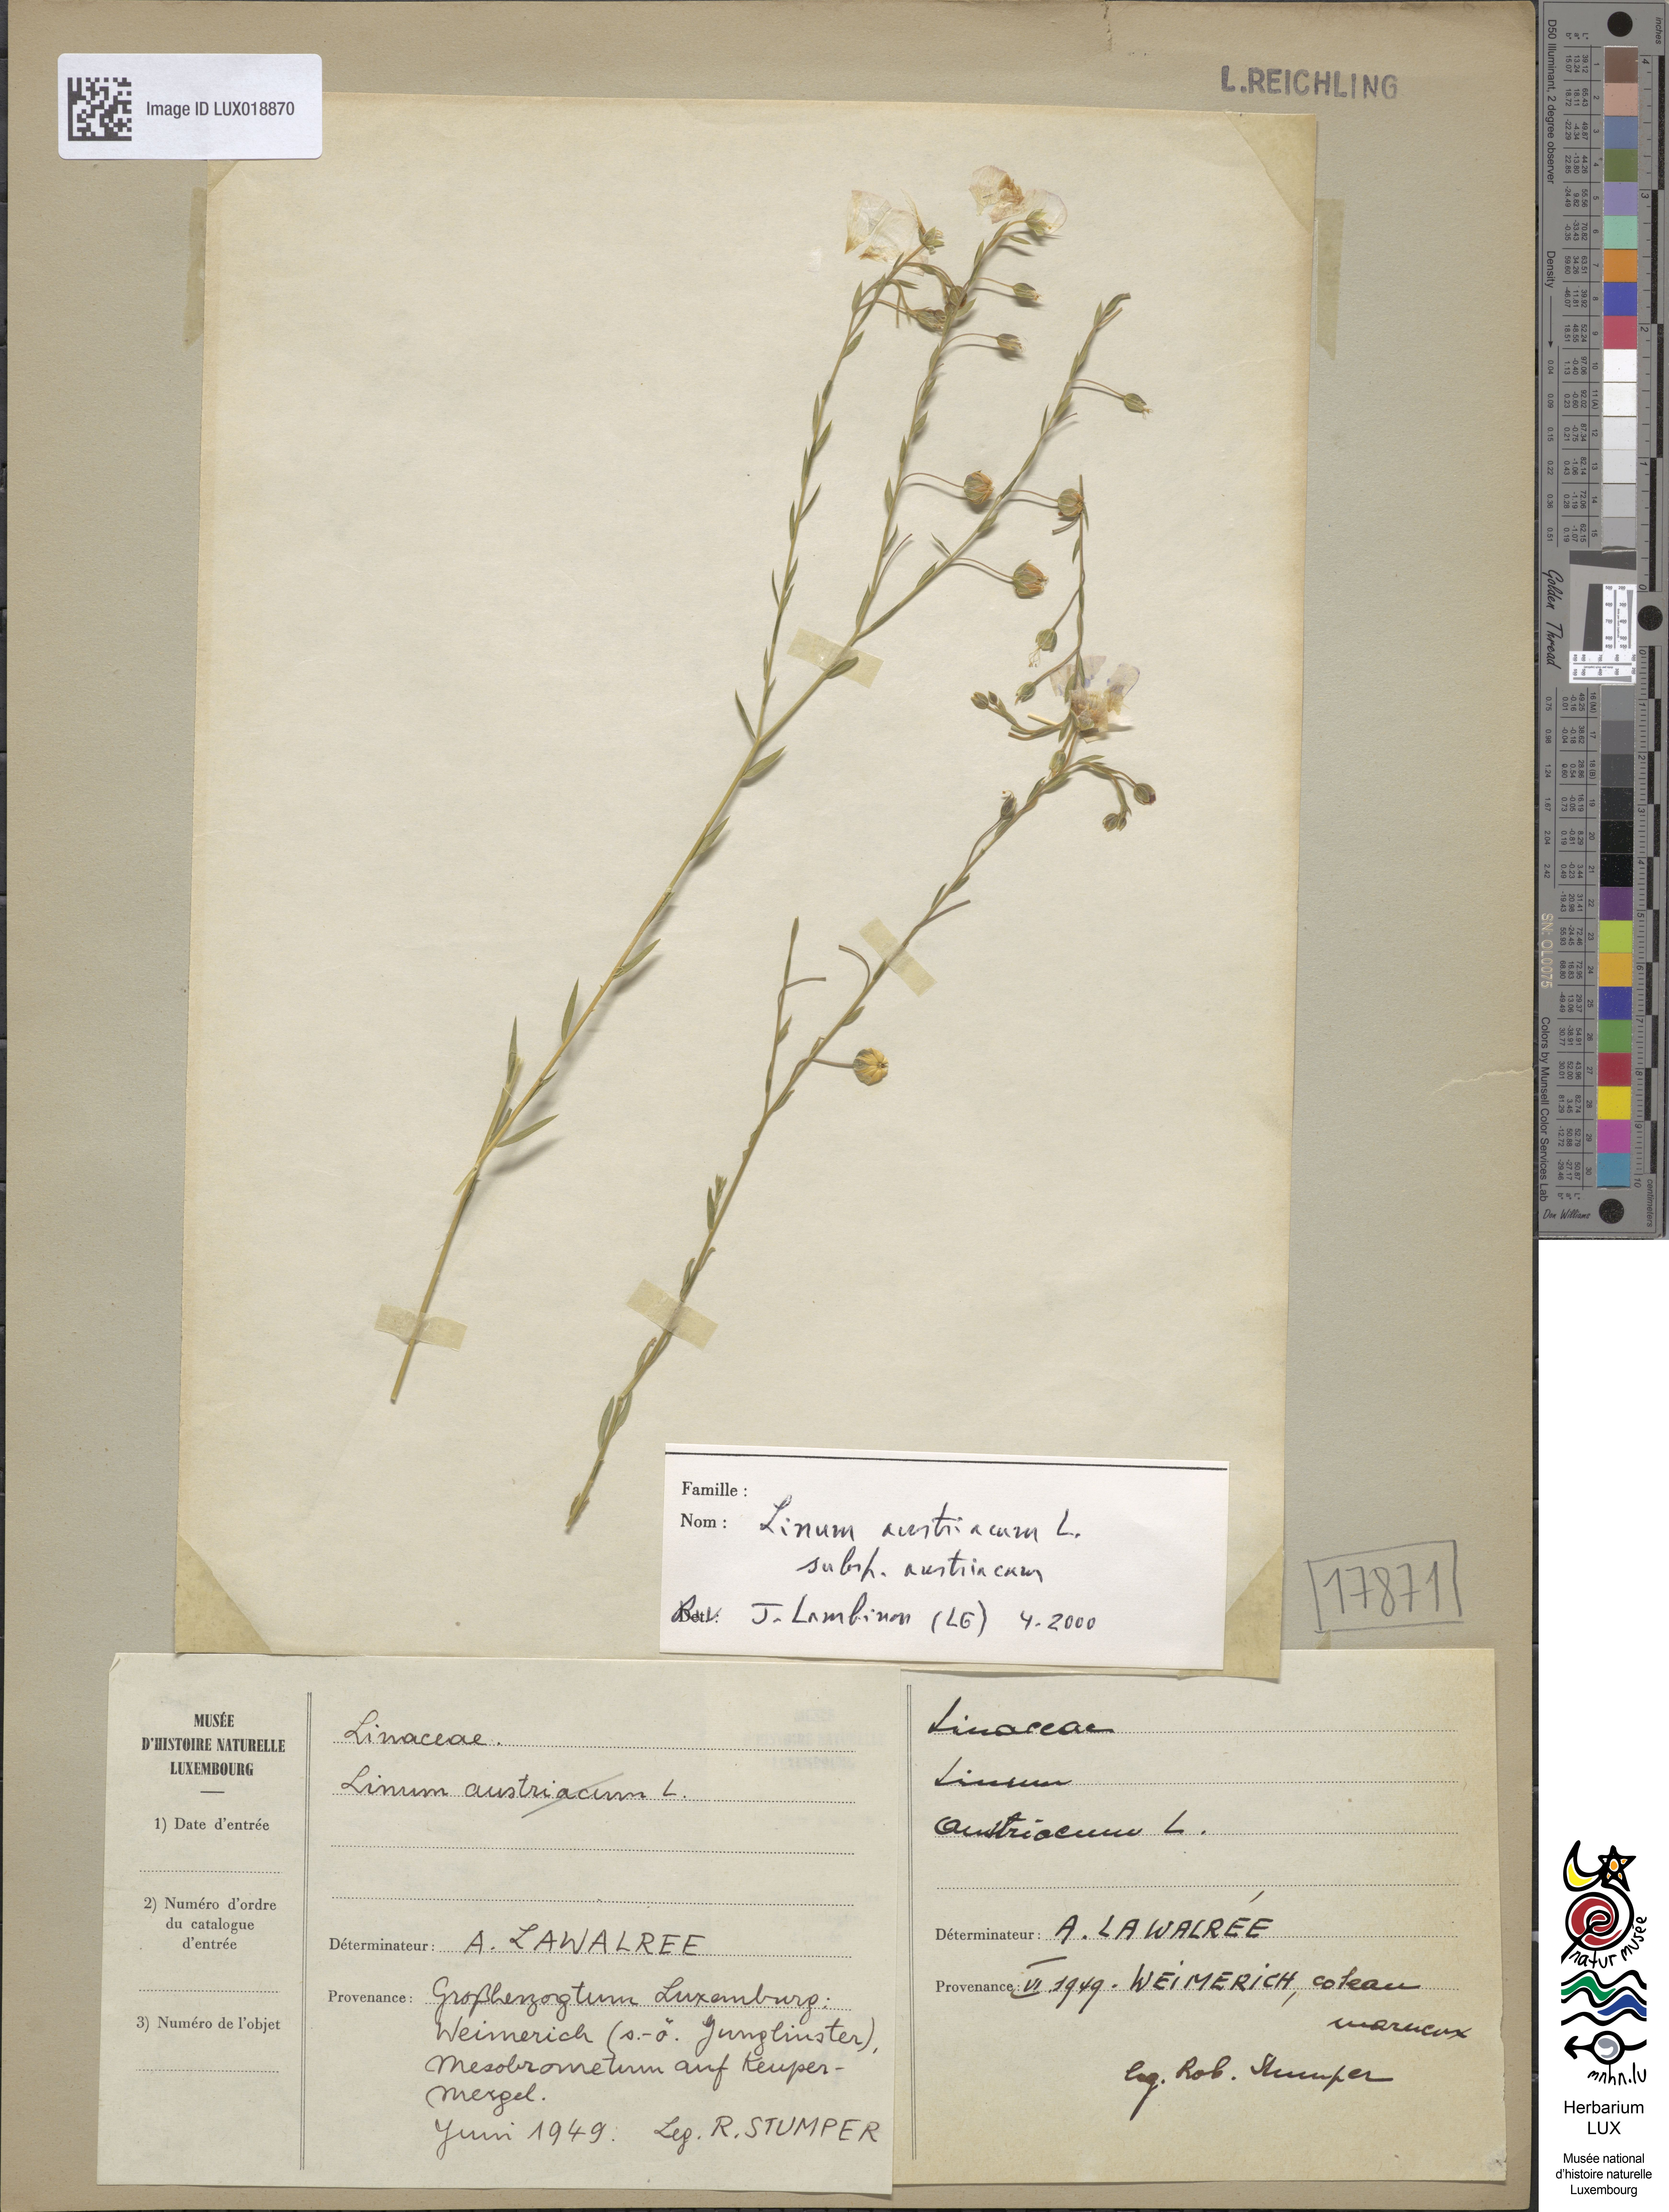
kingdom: Plantae
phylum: Tracheophyta
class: Magnoliopsida
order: Malpighiales
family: Linaceae
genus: Linum
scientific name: Linum austriacum
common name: Austrian flax
